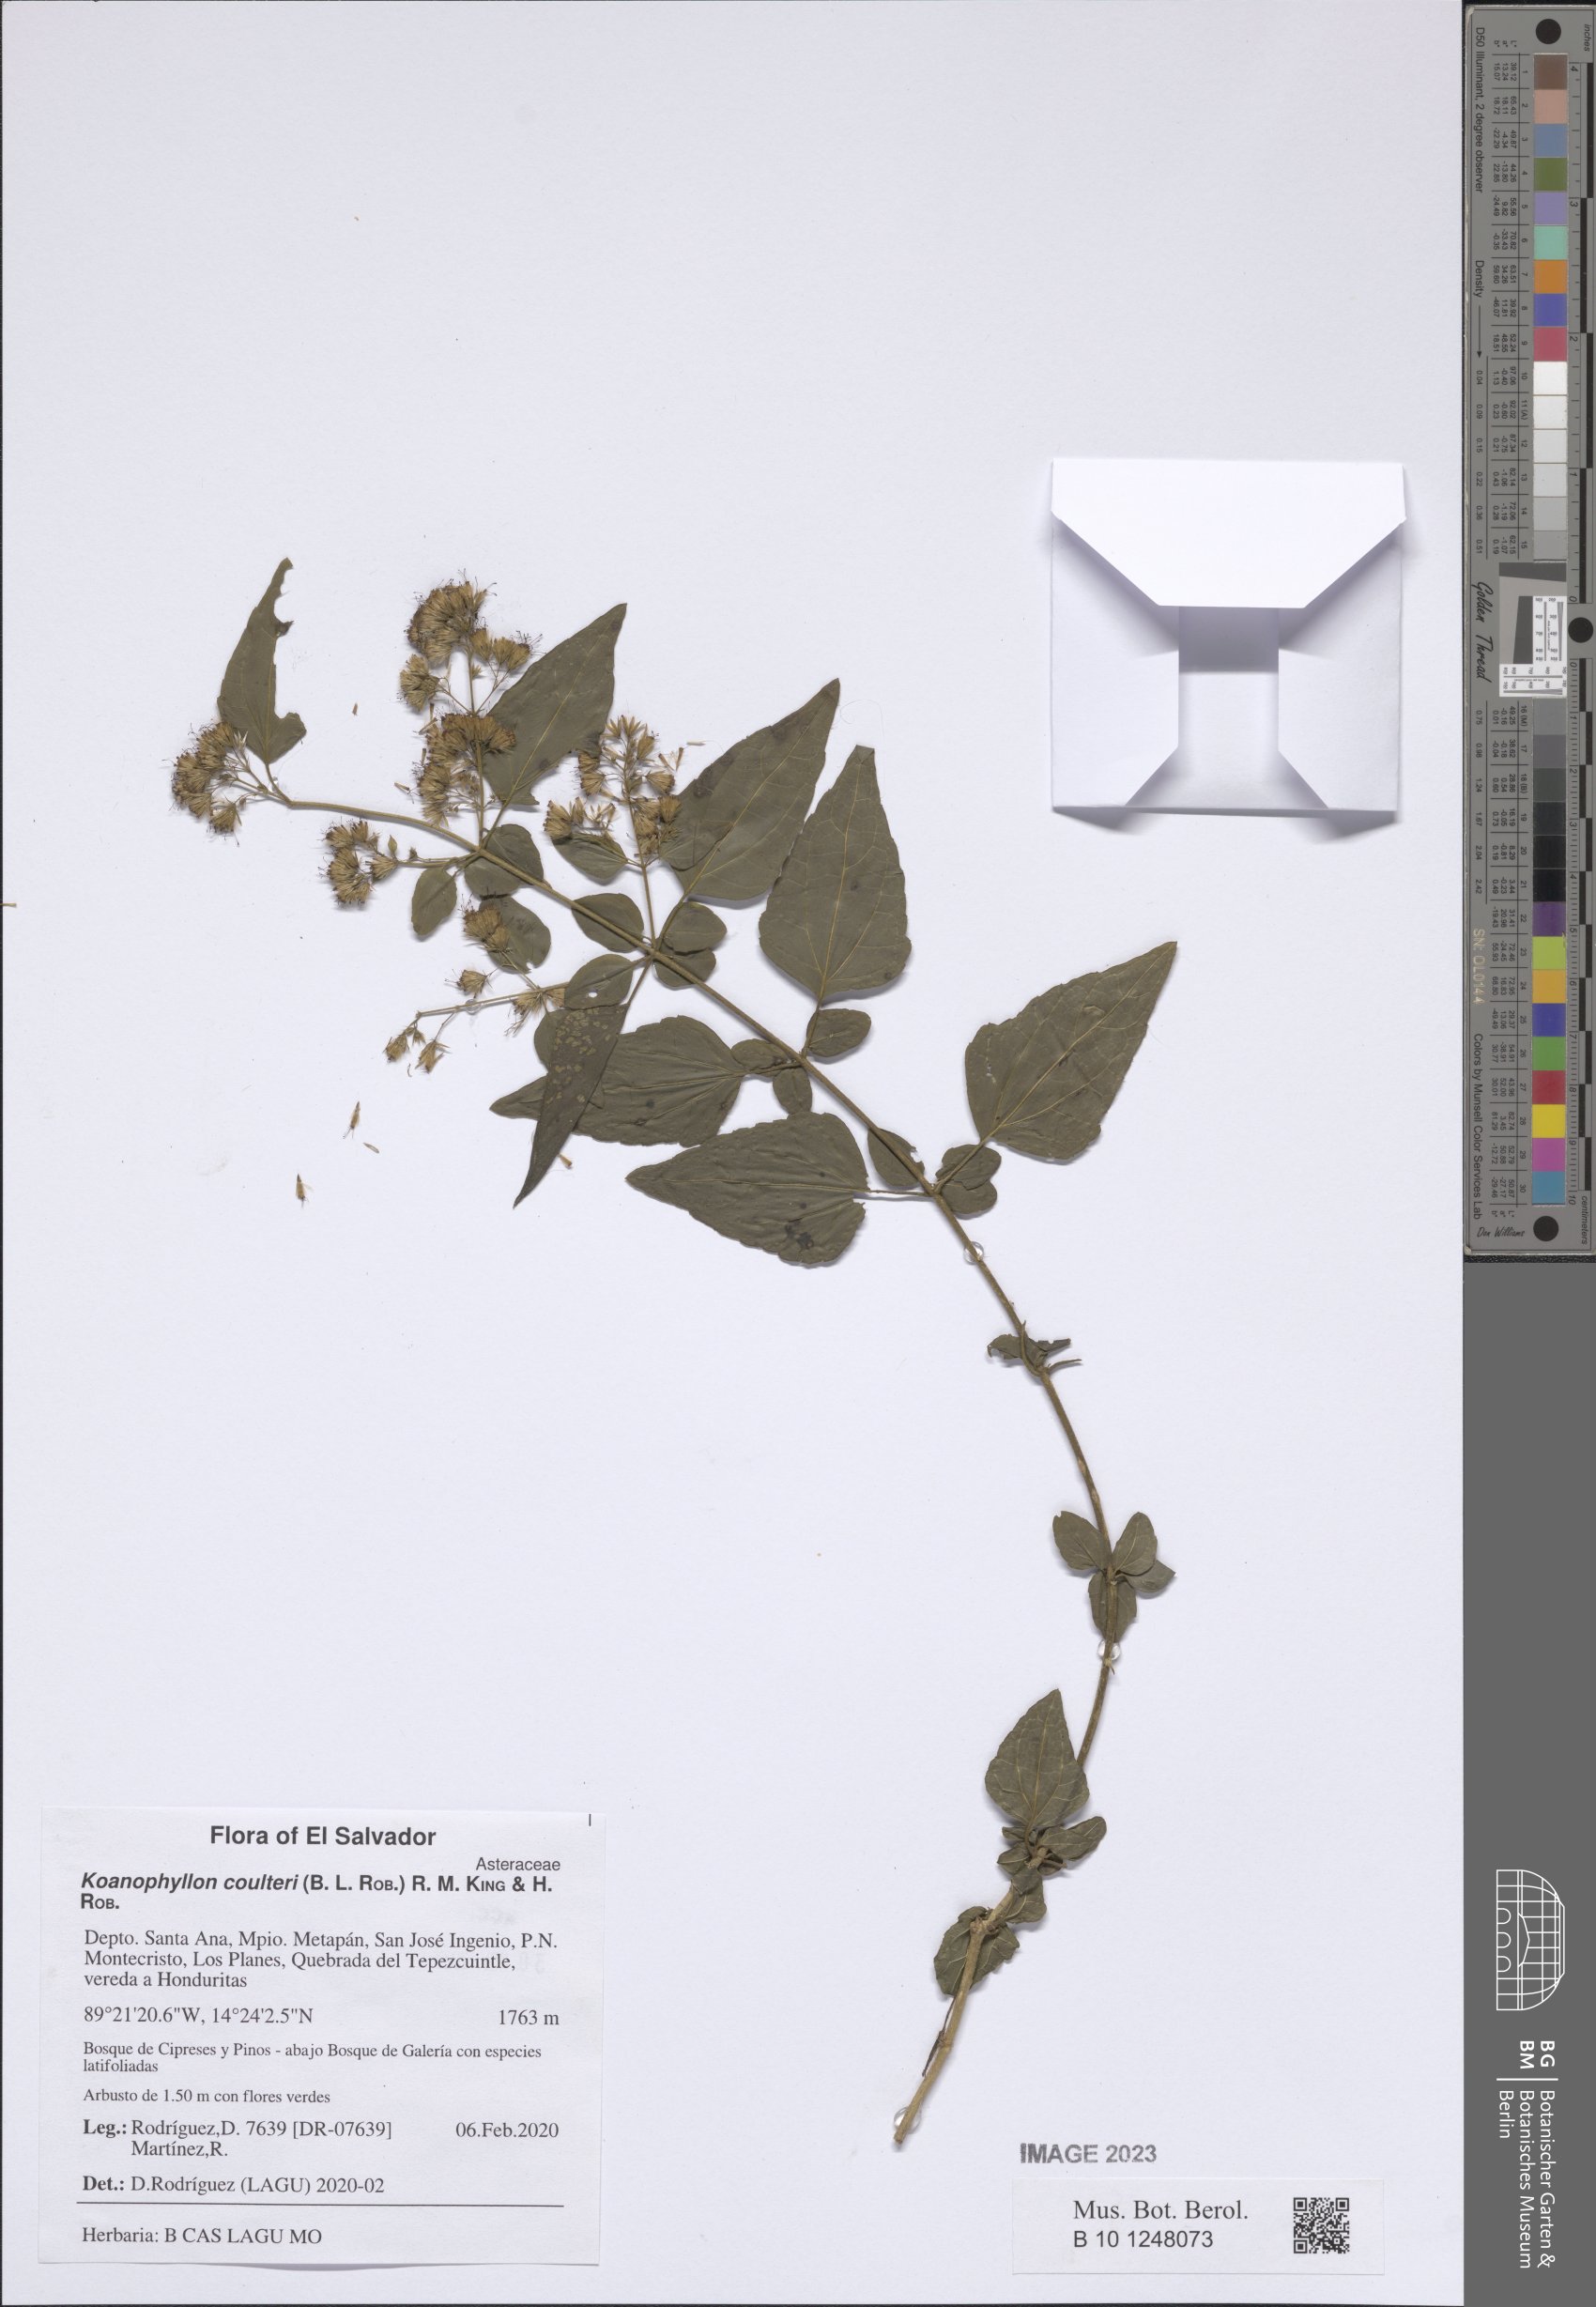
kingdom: Plantae
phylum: Tracheophyta
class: Magnoliopsida
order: Asterales
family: Asteraceae
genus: Koanophyllon
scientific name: Koanophyllon coulteri
